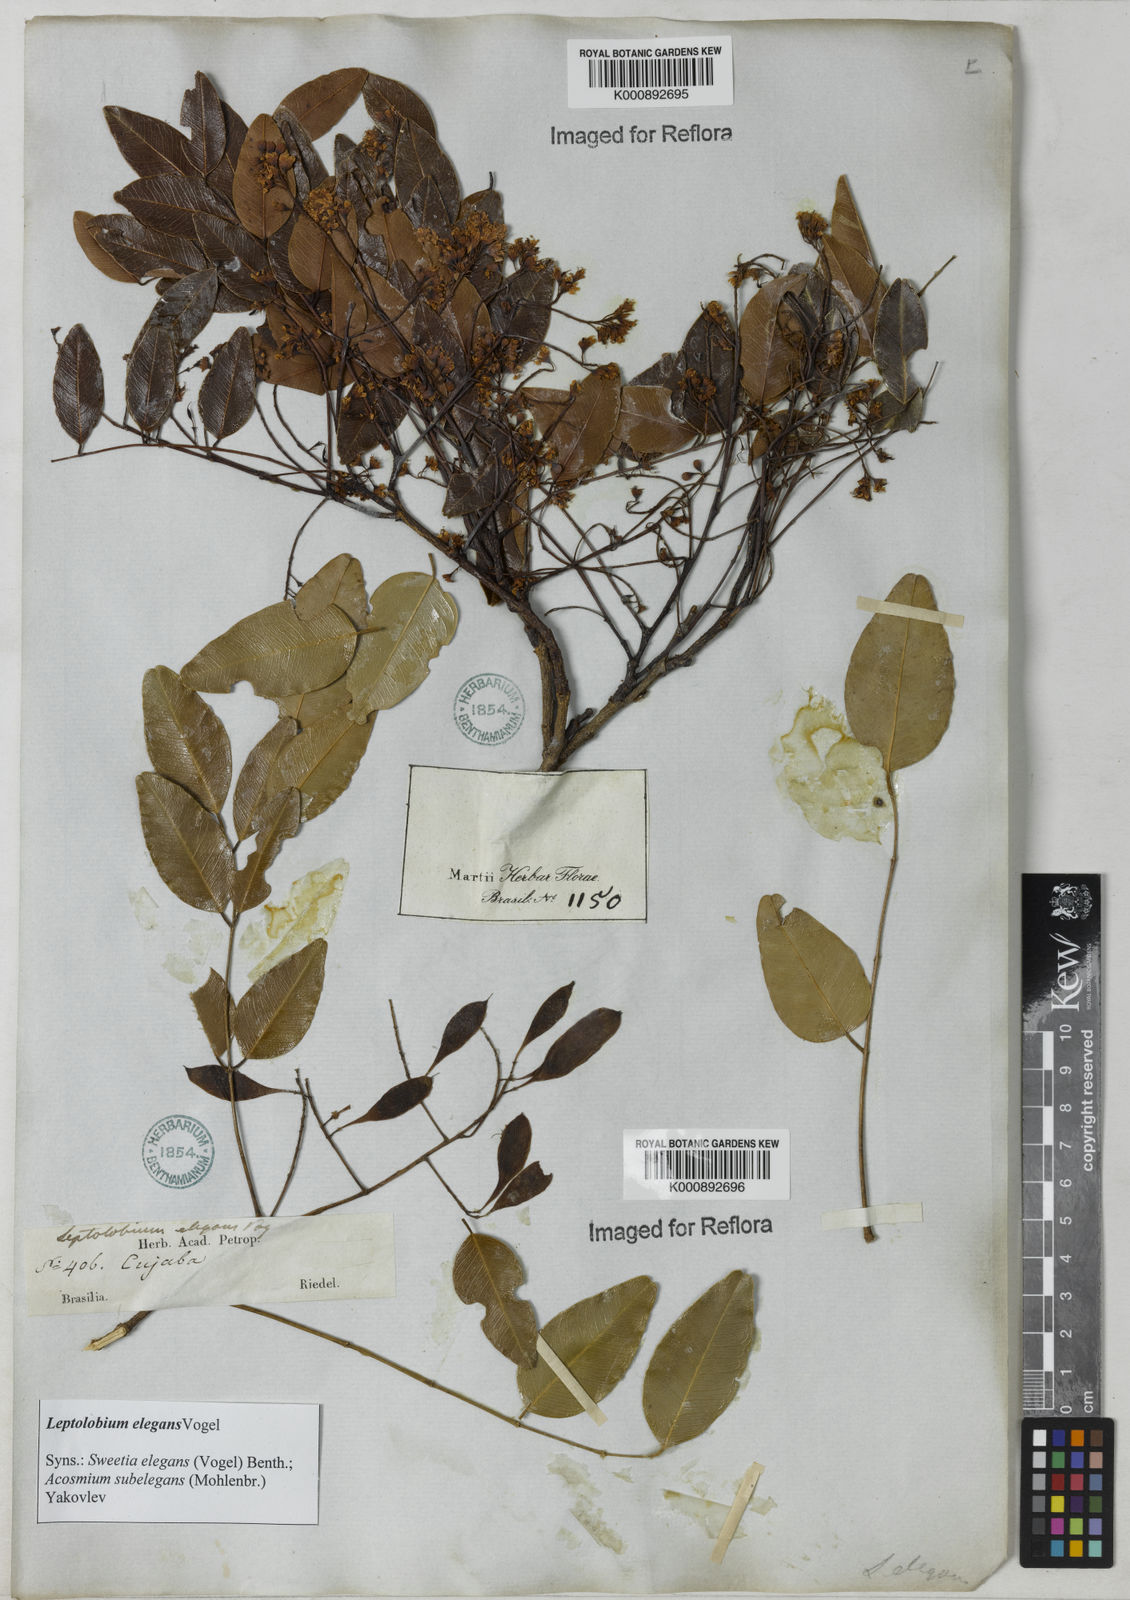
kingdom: Plantae
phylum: Tracheophyta
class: Magnoliopsida
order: Fabales
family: Fabaceae
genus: Leptolobium
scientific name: Leptolobium elegans
